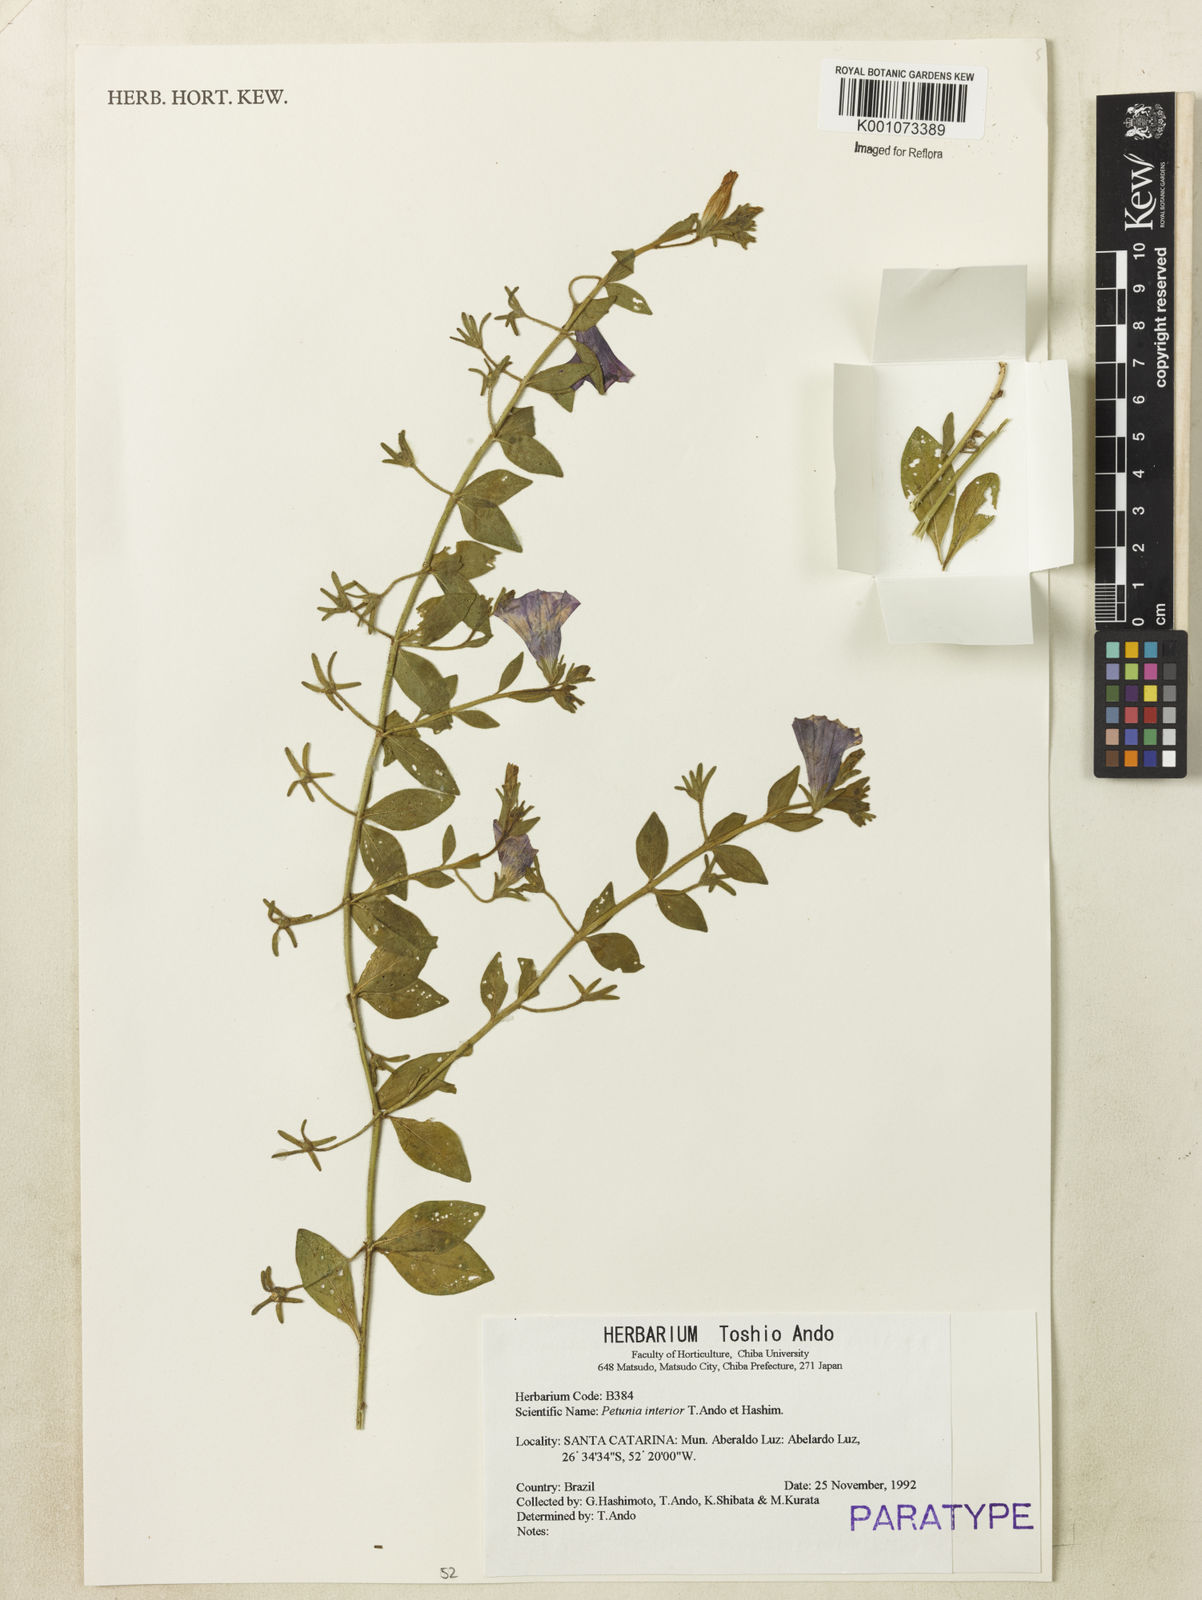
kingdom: Plantae
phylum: Tracheophyta
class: Magnoliopsida
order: Solanales
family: Solanaceae
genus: Petunia
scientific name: Petunia interior
